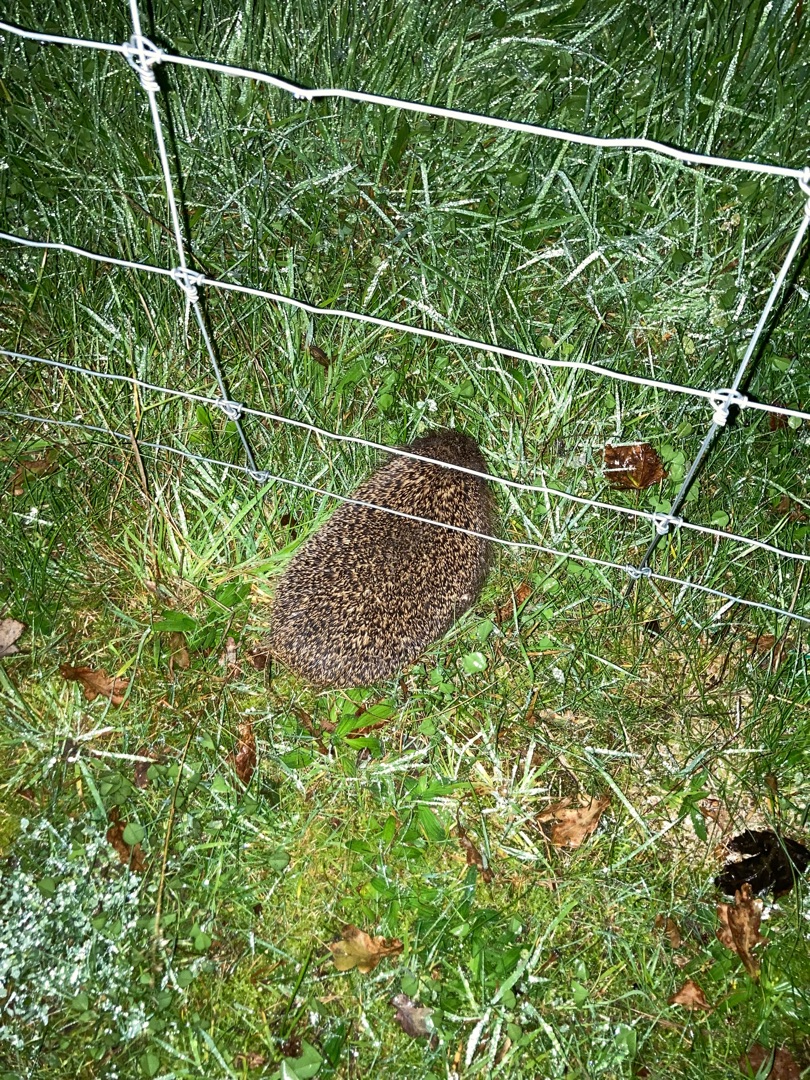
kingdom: Animalia
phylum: Chordata
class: Mammalia
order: Erinaceomorpha
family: Erinaceidae
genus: Erinaceus
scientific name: Erinaceus europaeus
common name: Pindsvin
